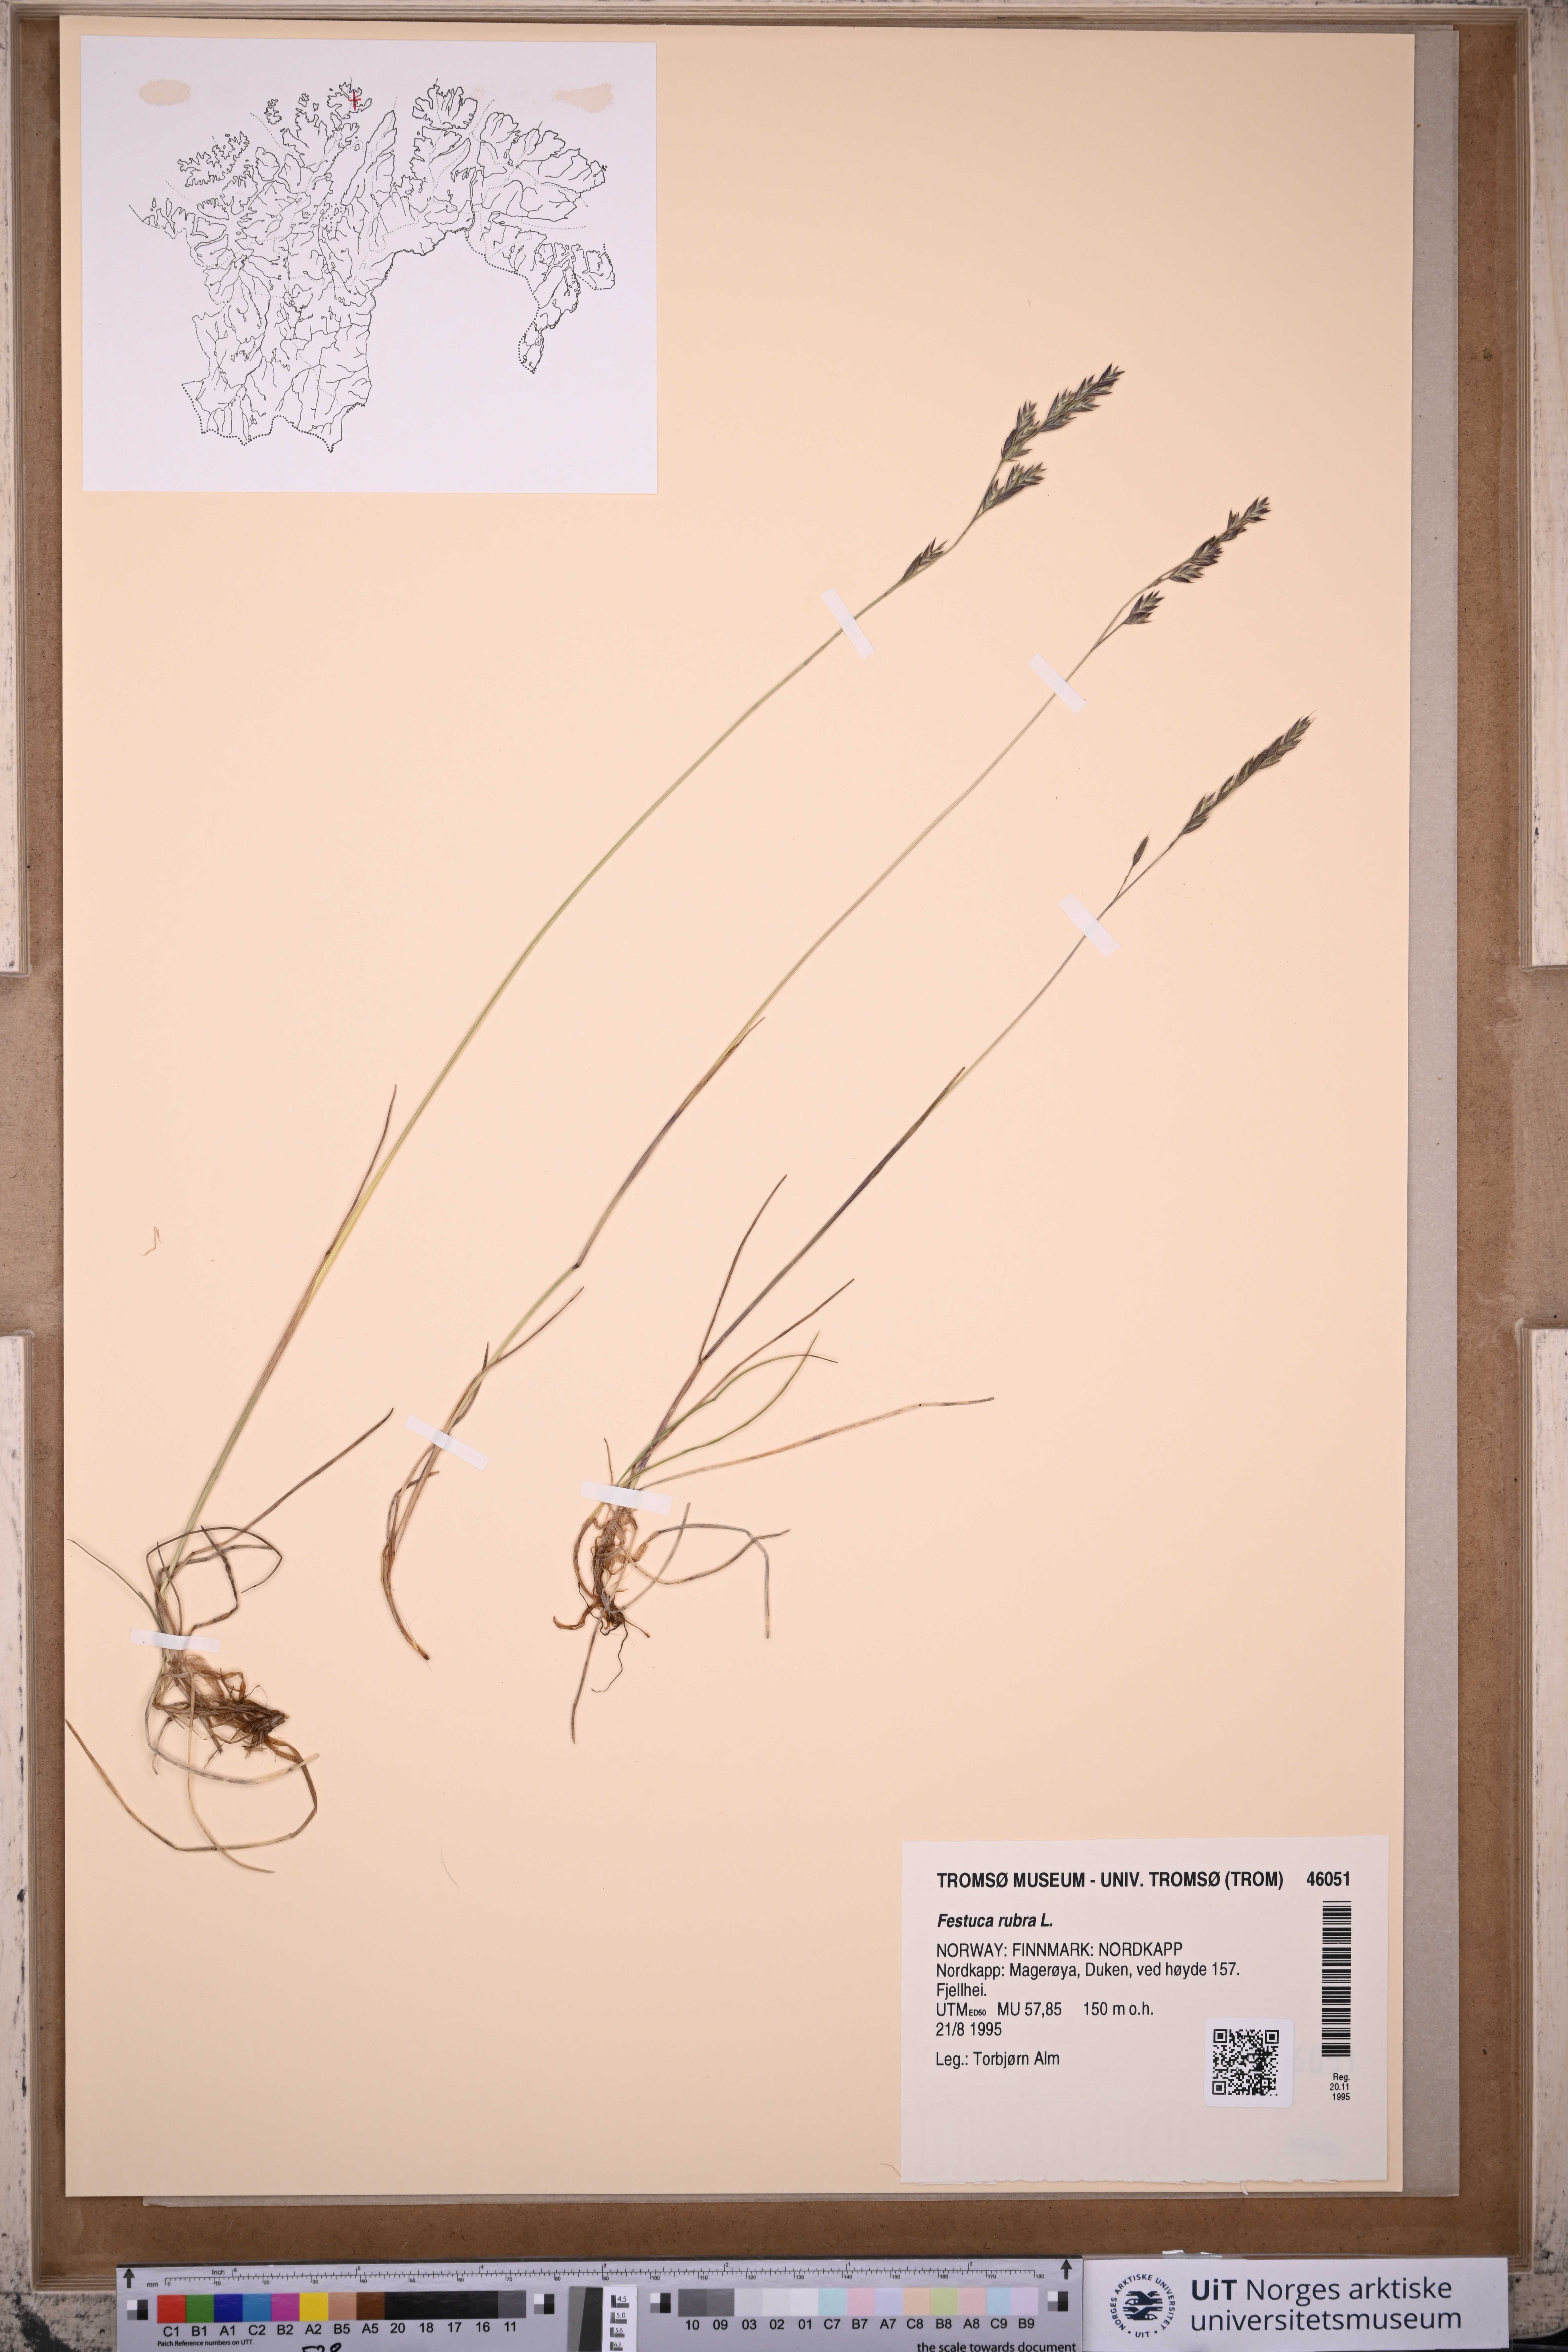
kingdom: Plantae
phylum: Tracheophyta
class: Liliopsida
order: Poales
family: Poaceae
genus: Festuca
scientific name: Festuca rubra
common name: Red fescue
